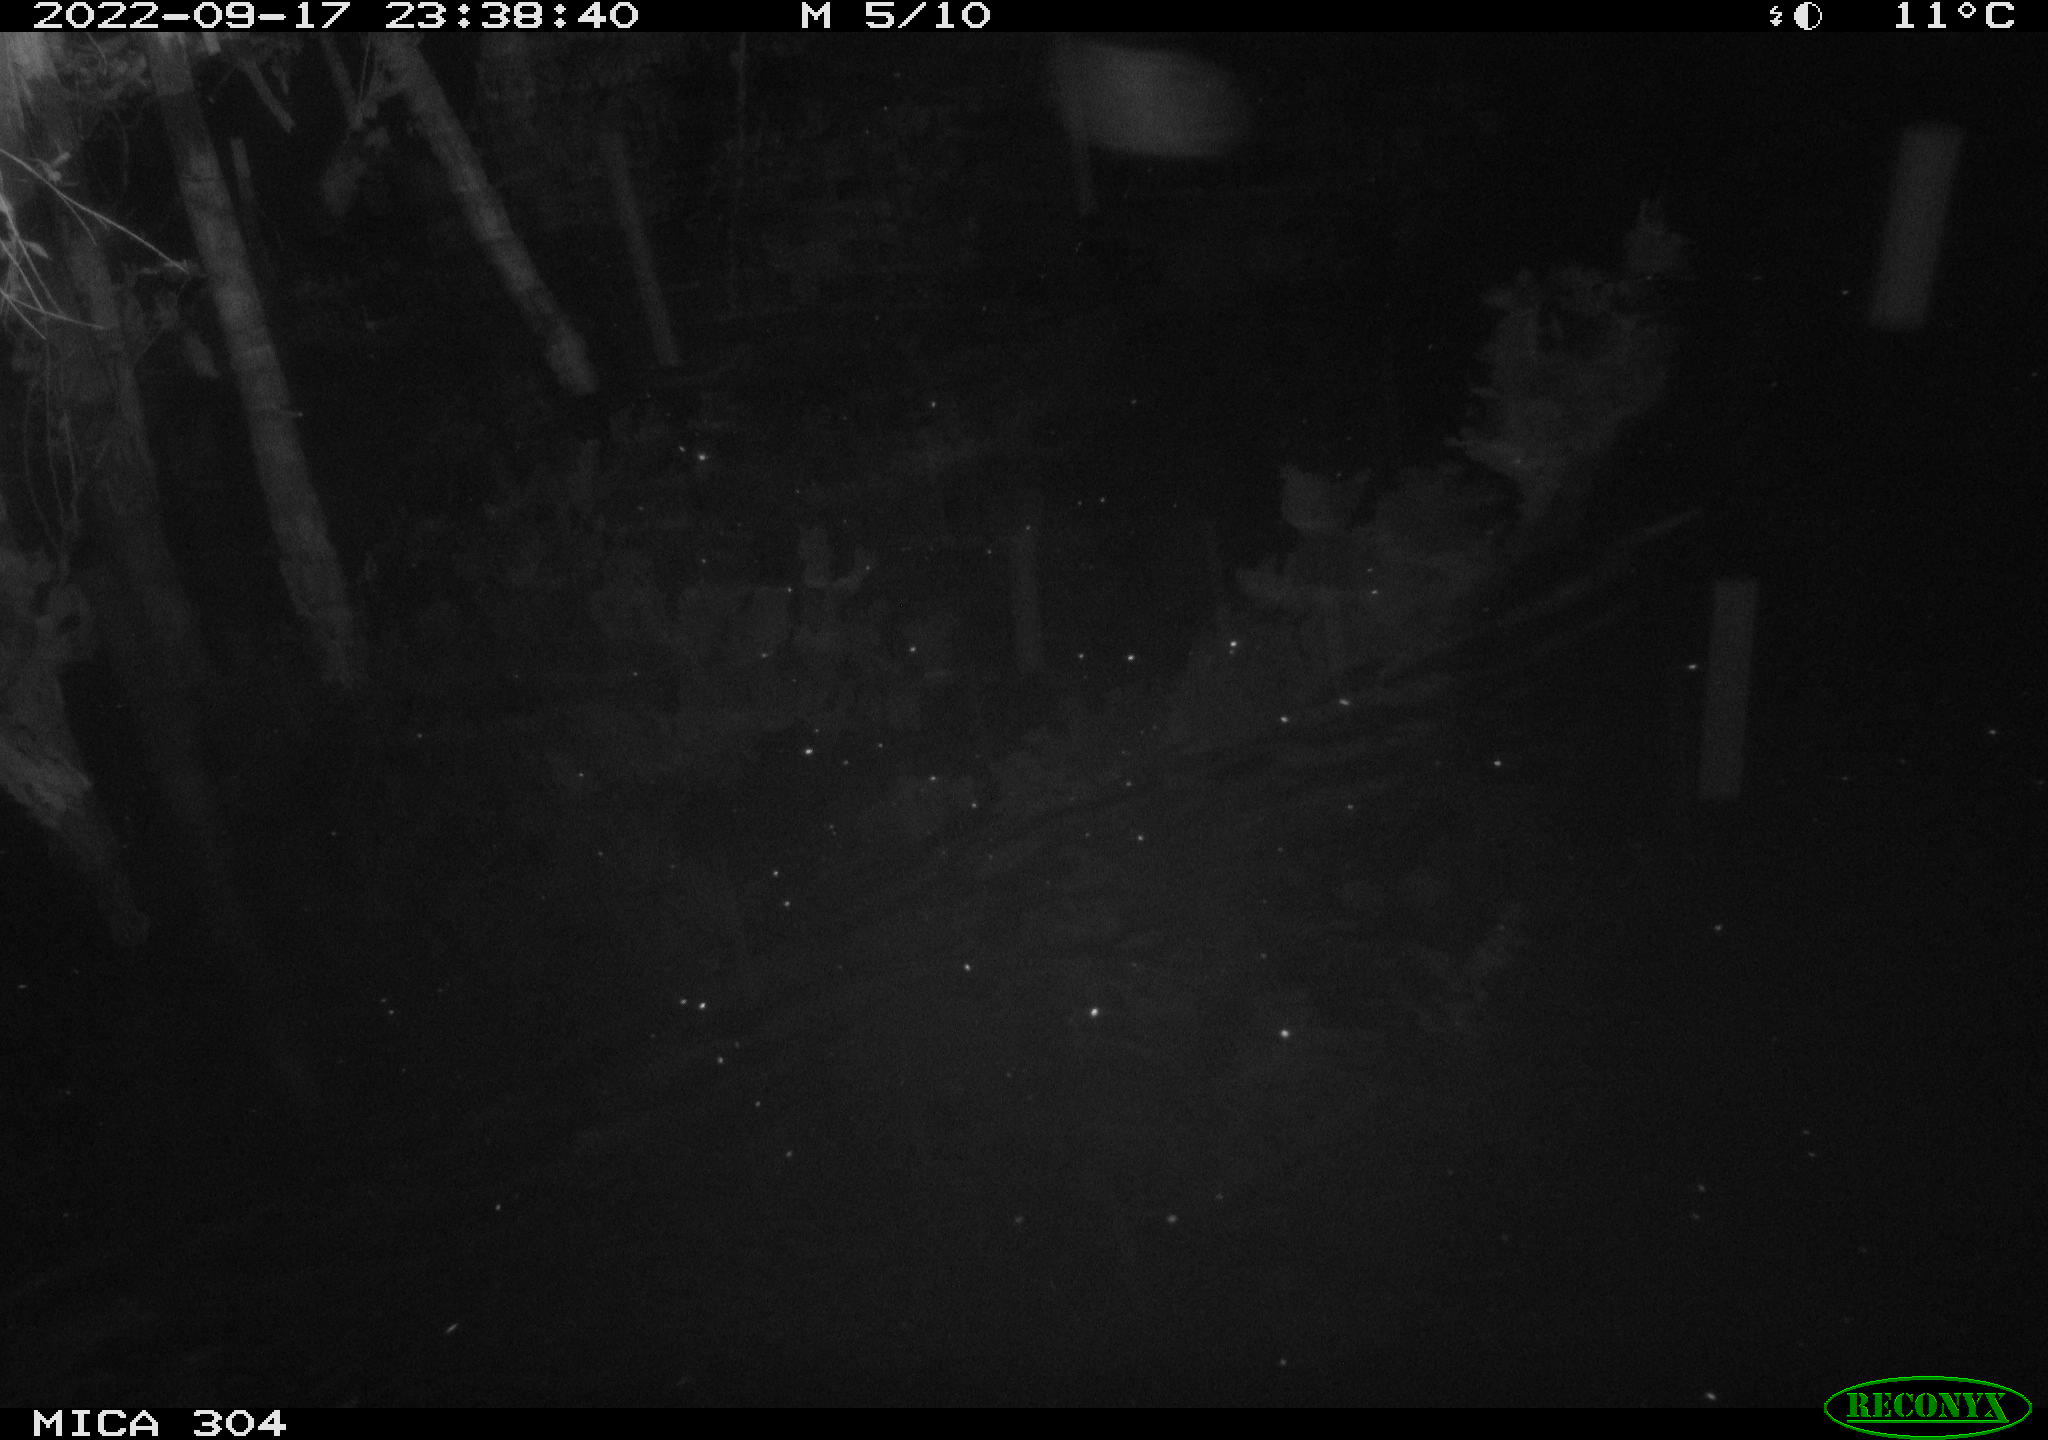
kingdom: Animalia
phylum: Chordata
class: Mammalia
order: Rodentia
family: Muridae
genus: Rattus
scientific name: Rattus norvegicus
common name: Brown rat
